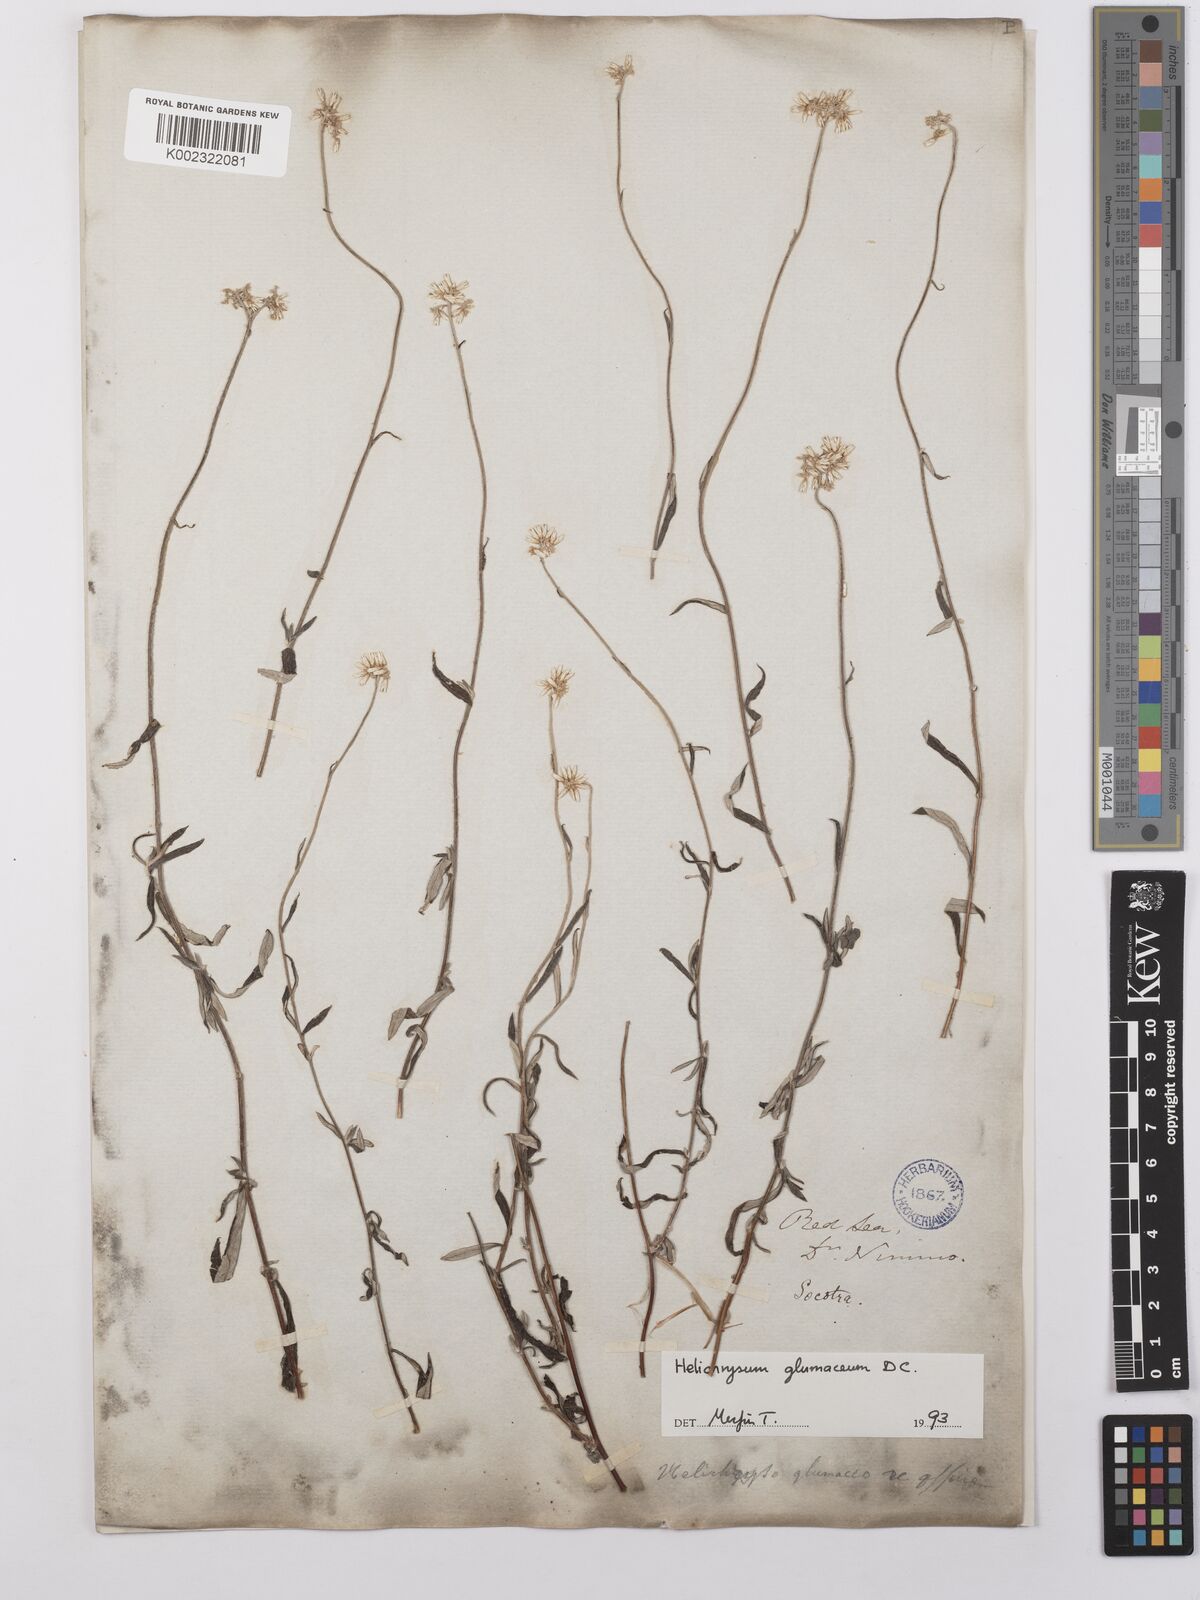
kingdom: Plantae
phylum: Tracheophyta
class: Magnoliopsida
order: Asterales
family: Asteraceae
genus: Helichrysum
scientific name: Helichrysum glumaceum
